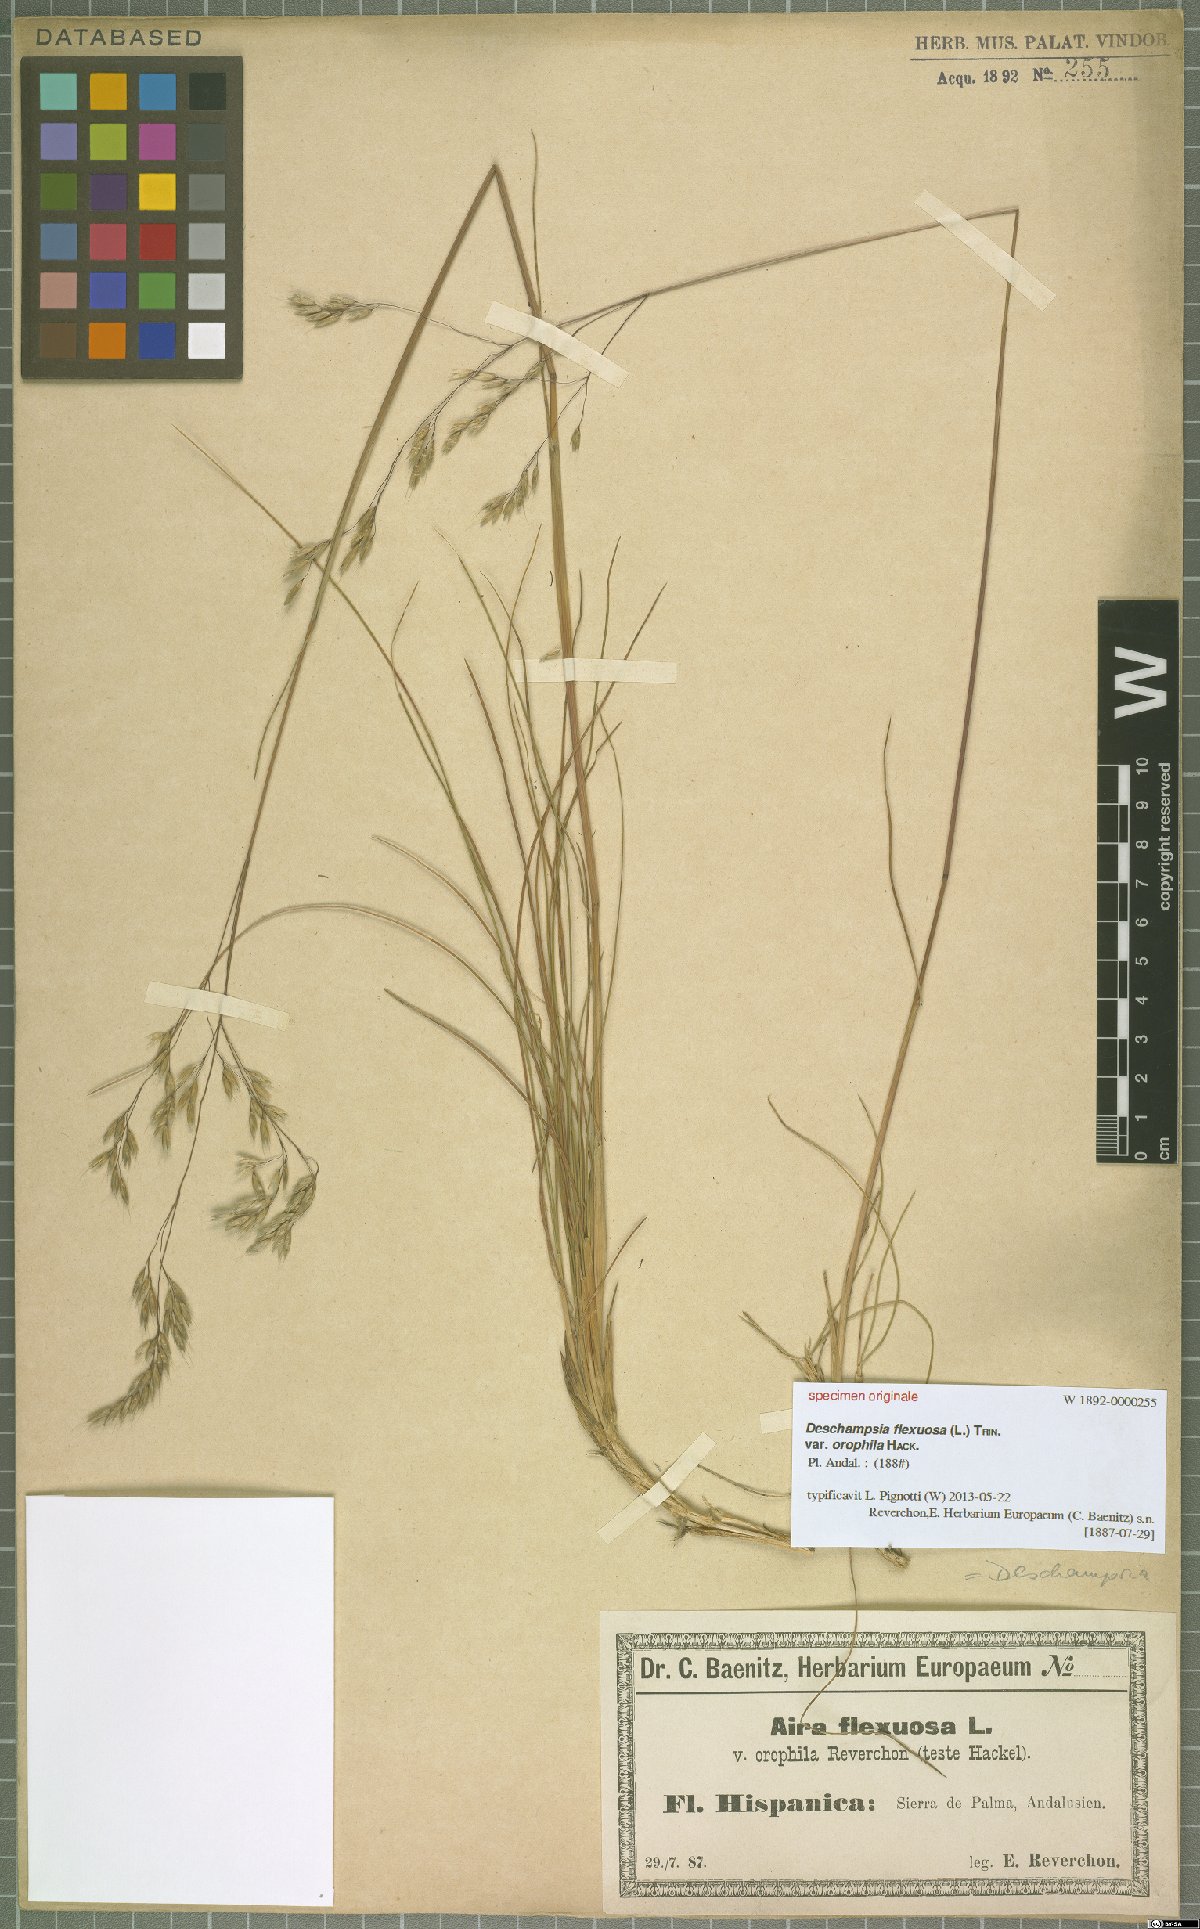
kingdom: Plantae
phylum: Tracheophyta
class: Liliopsida
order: Poales
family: Poaceae
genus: Avenella
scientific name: Avenella flexuosa
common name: Wavy hairgrass
